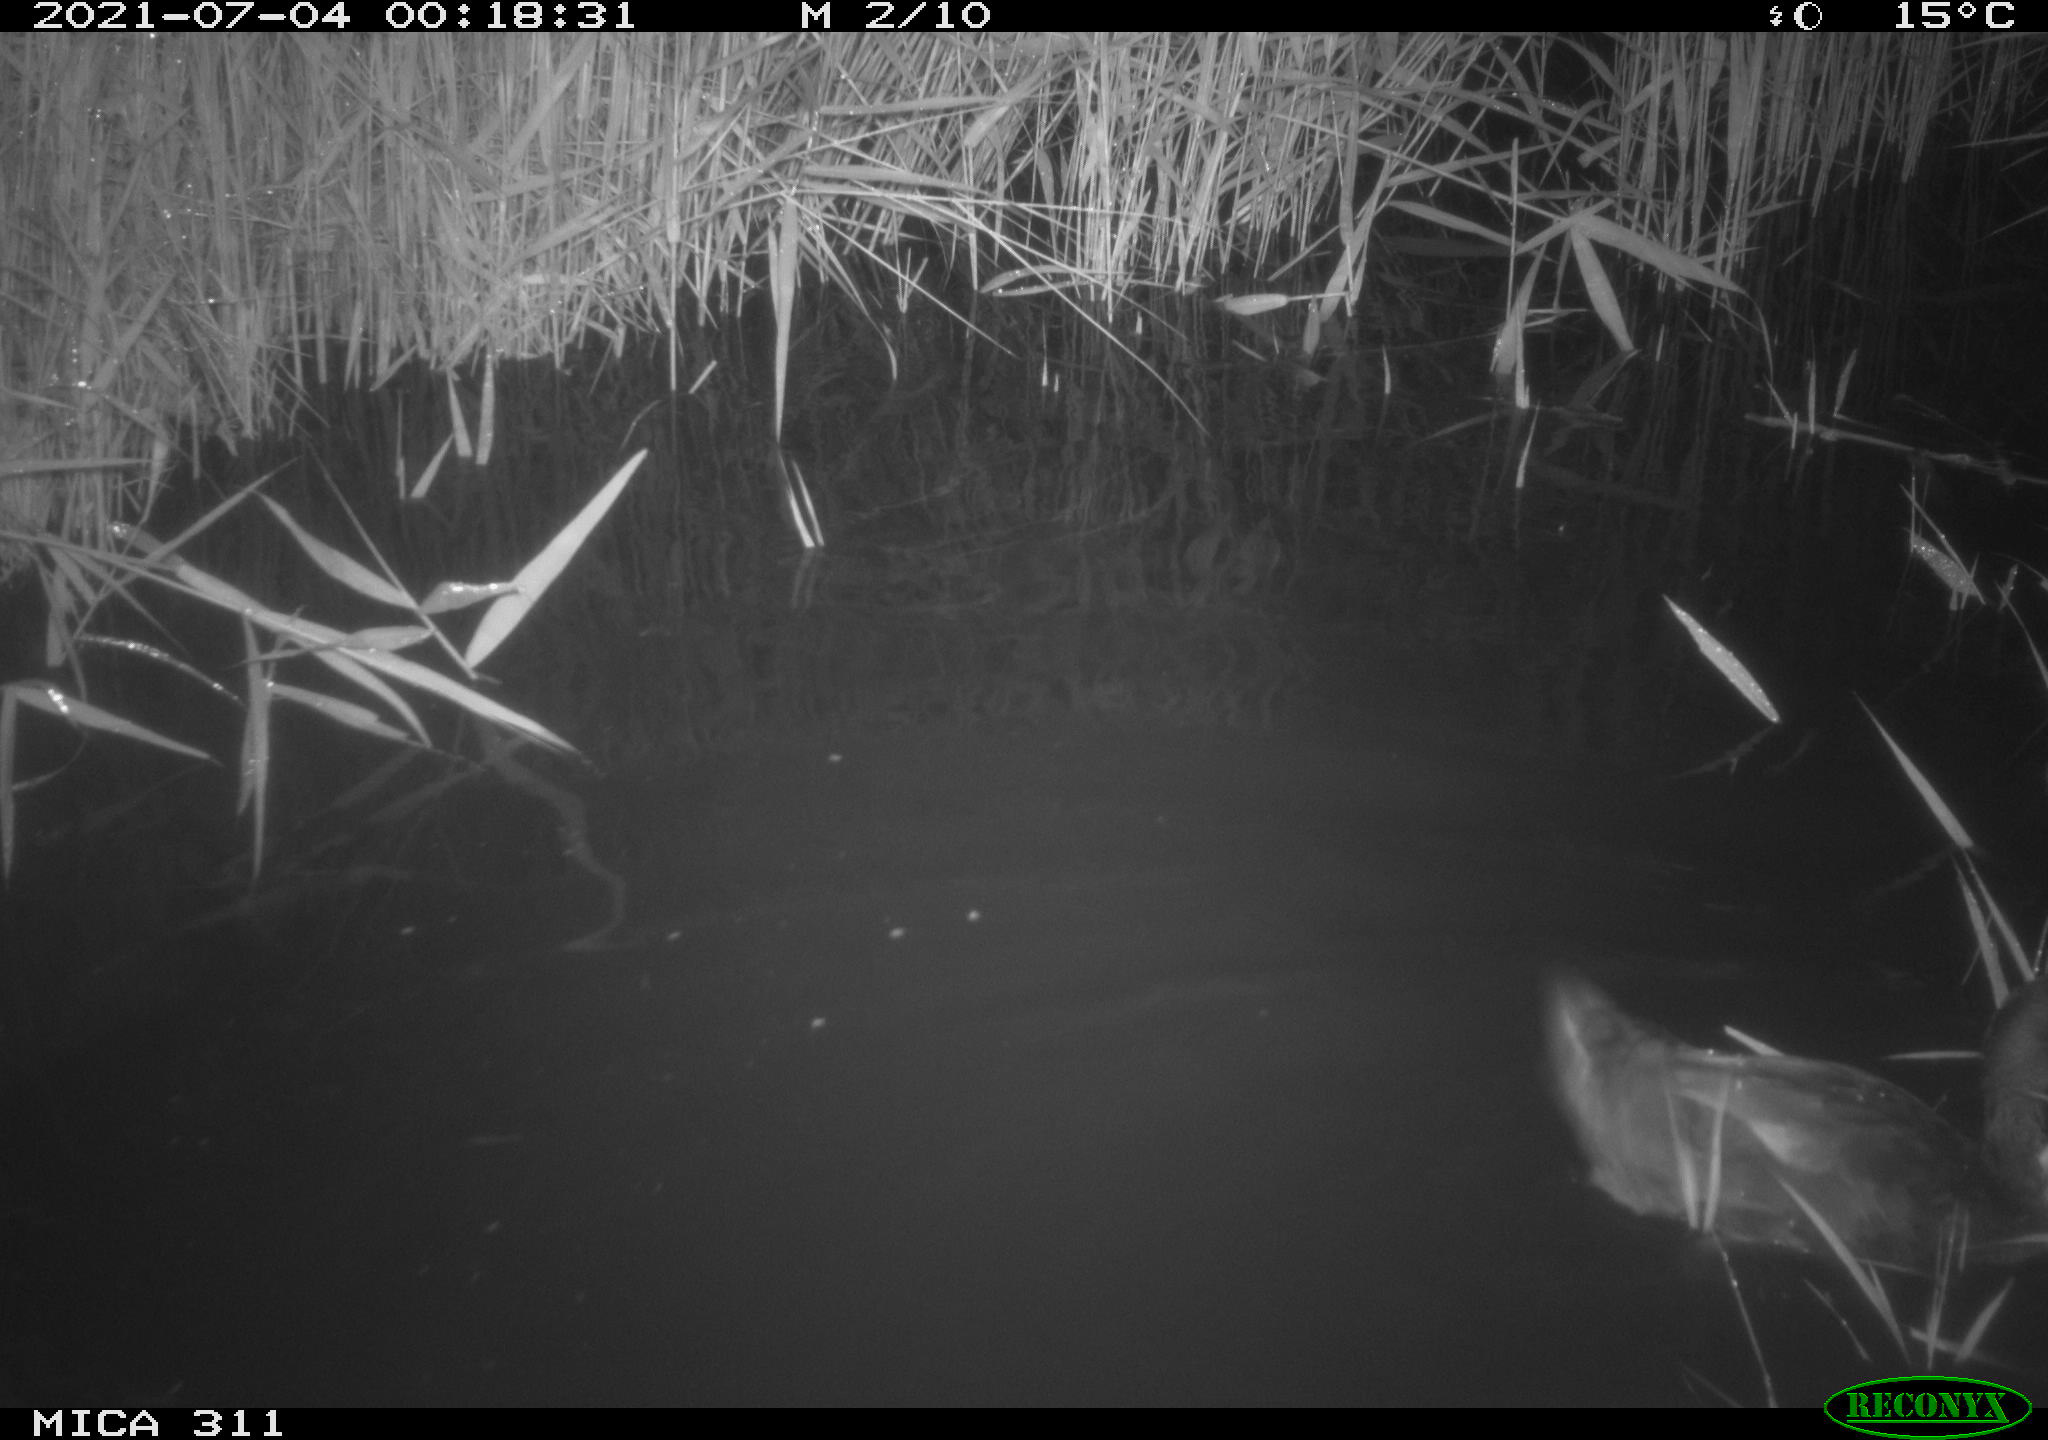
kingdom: Animalia
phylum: Chordata
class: Aves
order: Anseriformes
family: Anatidae
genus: Anas
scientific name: Anas
